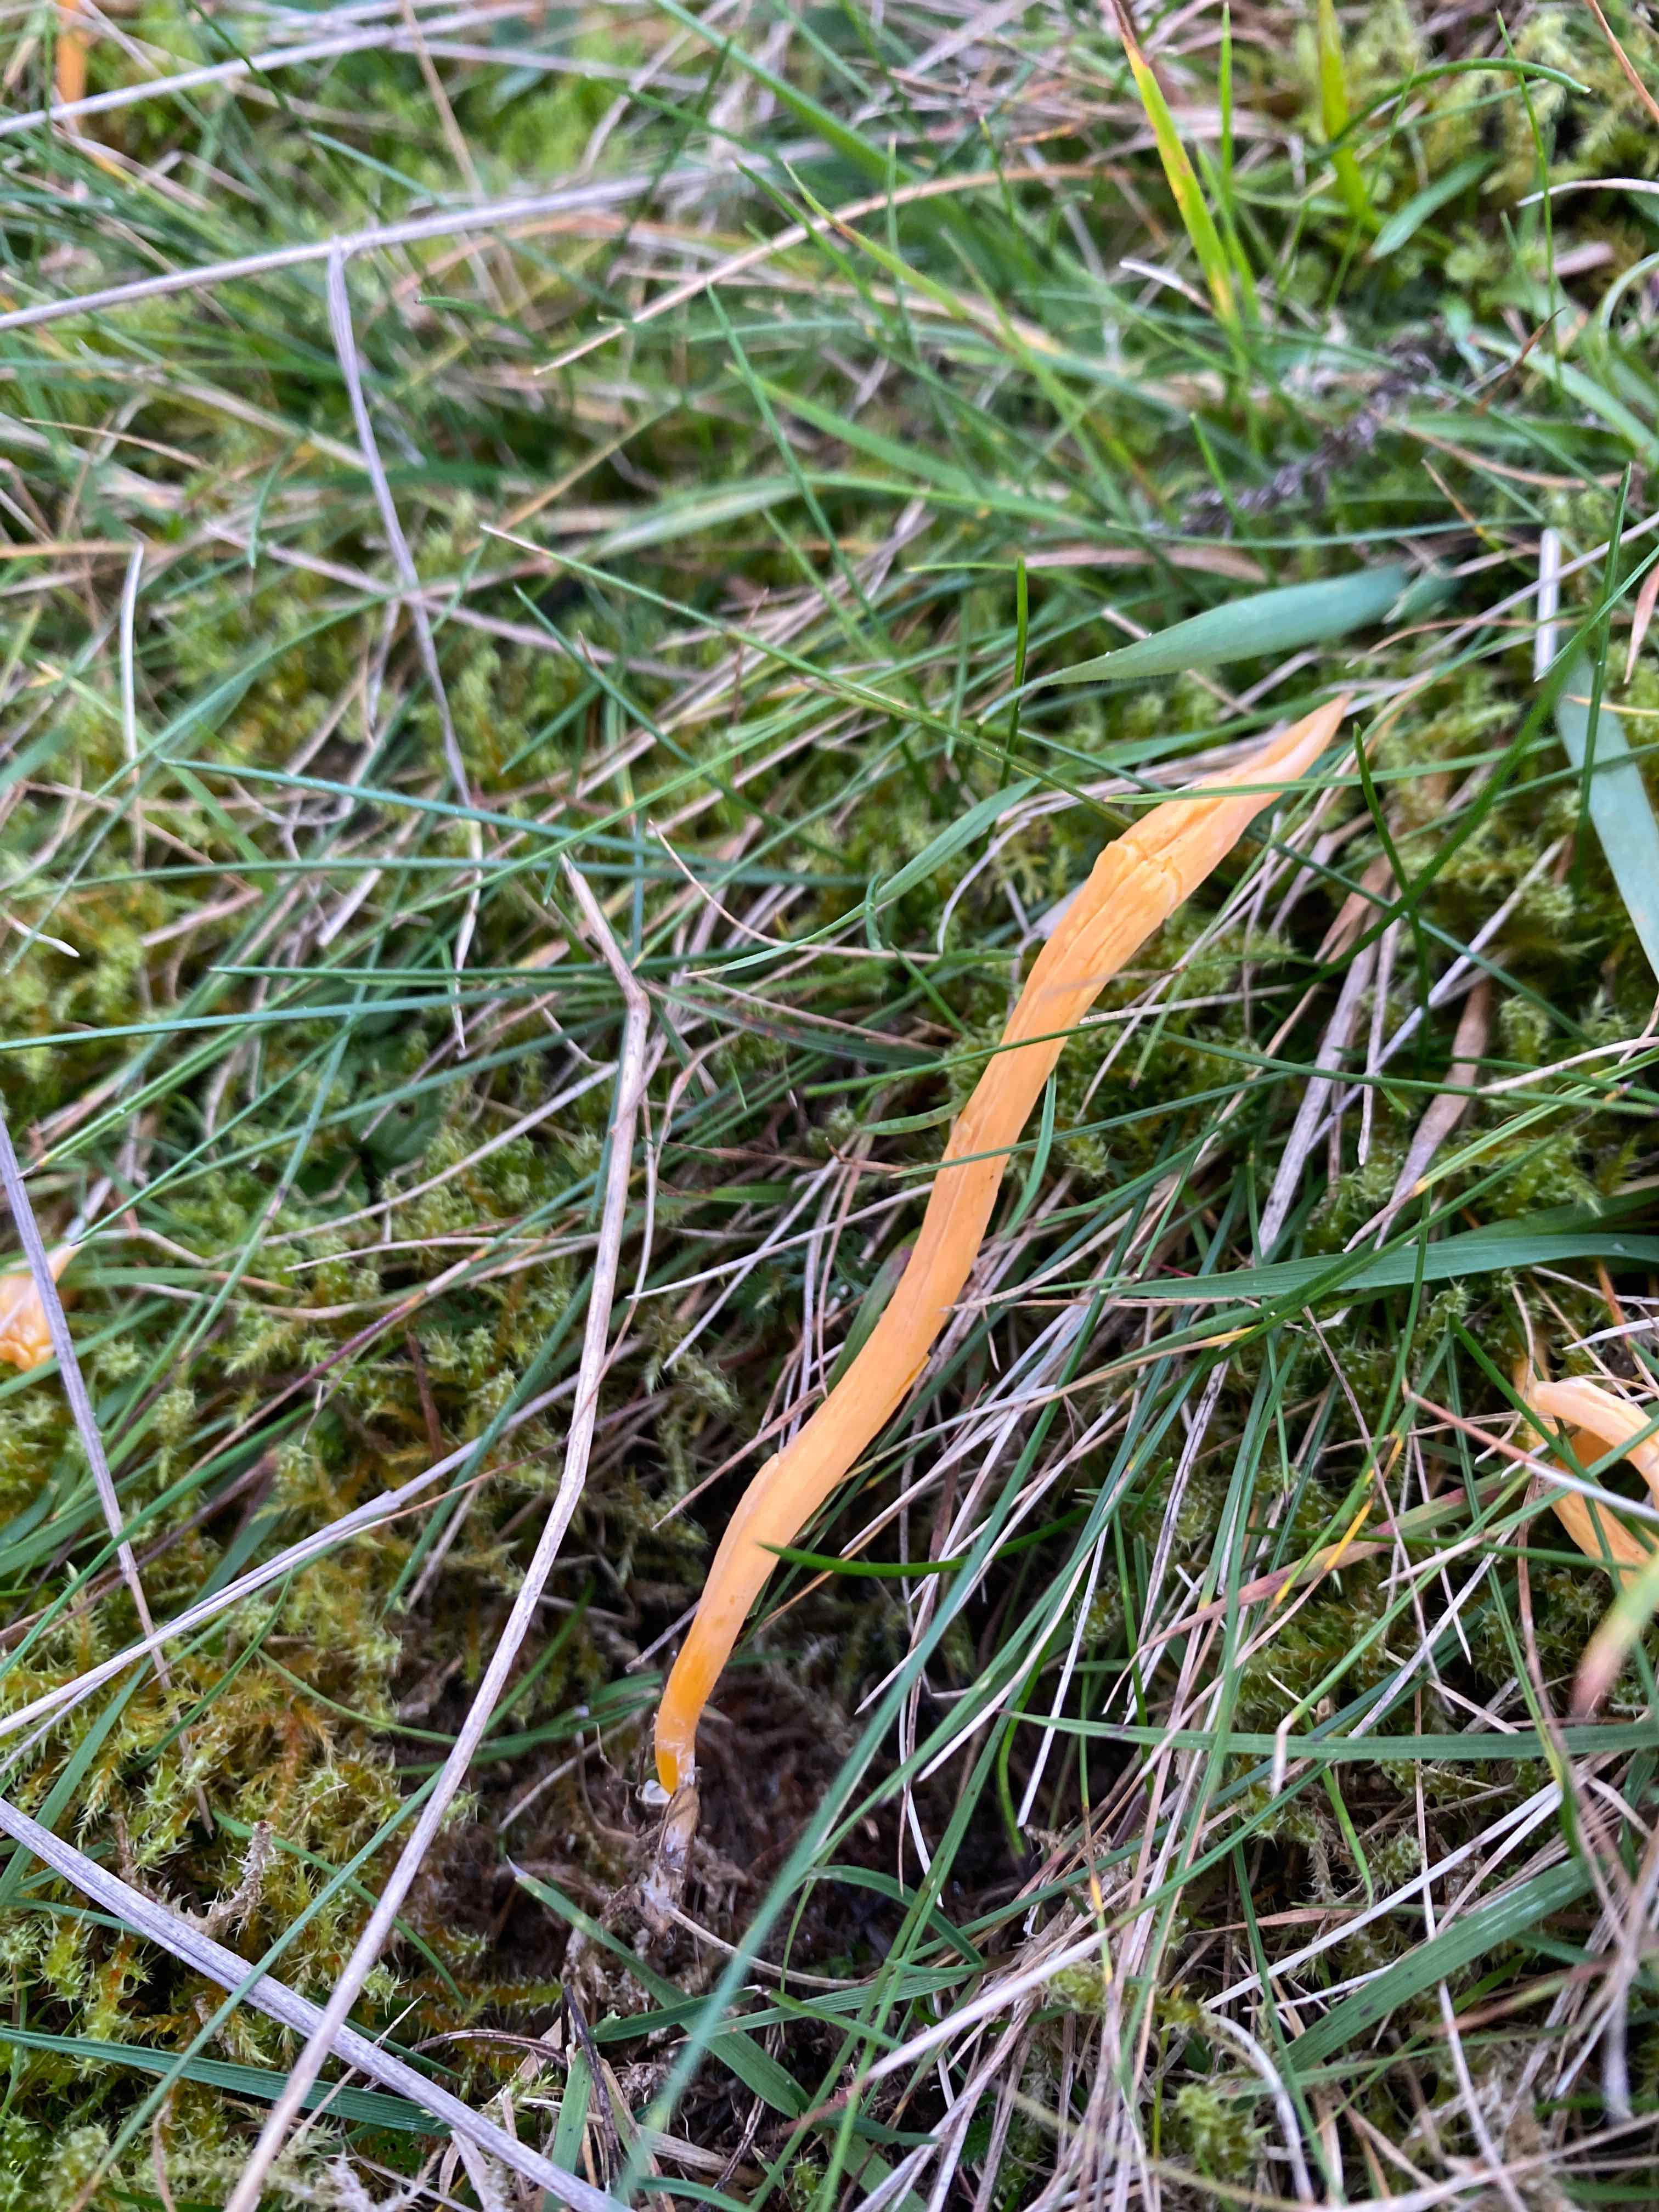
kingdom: Fungi
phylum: Basidiomycota
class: Agaricomycetes
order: Agaricales
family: Clavariaceae
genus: Clavulinopsis
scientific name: Clavulinopsis luteoalba
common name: abrikos-køllesvamp
